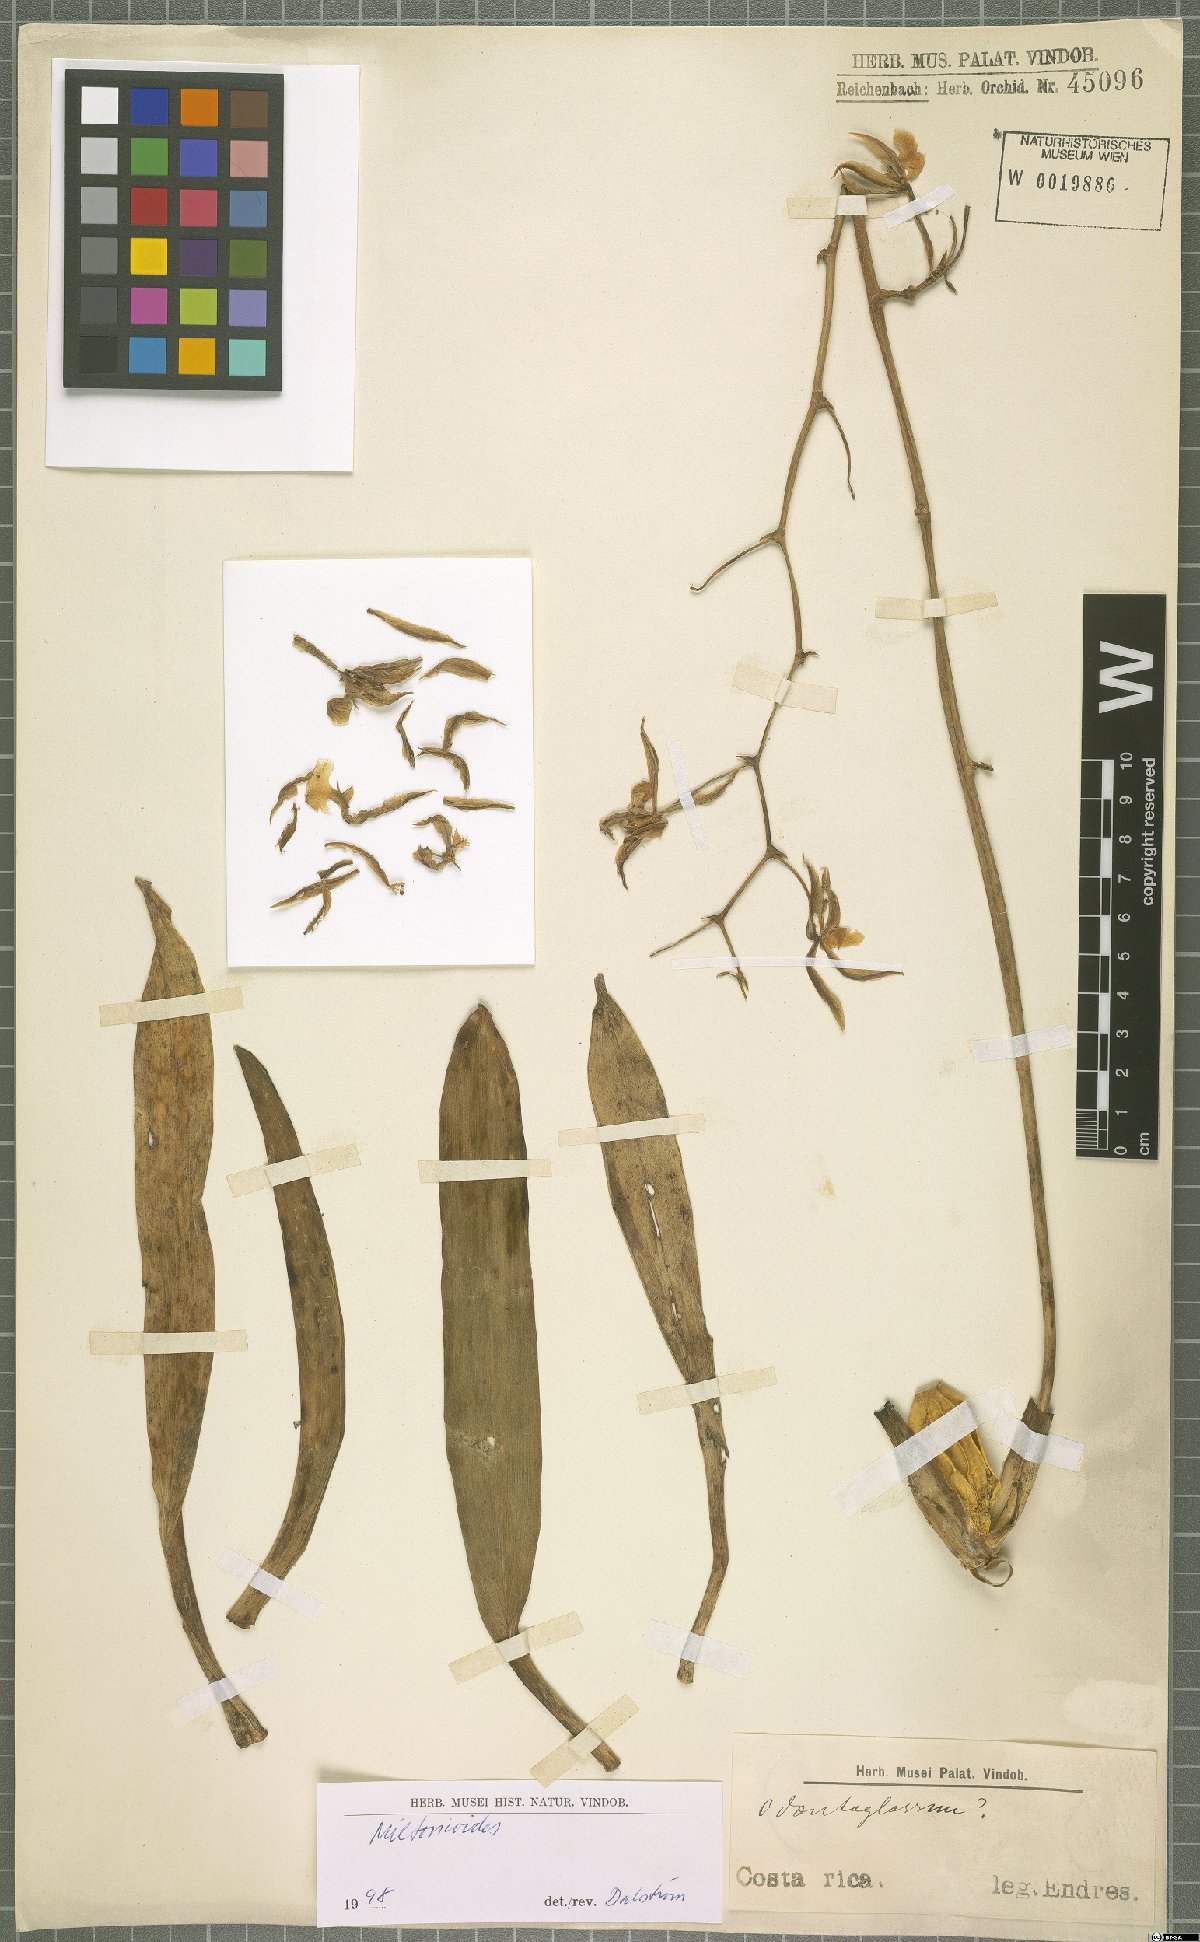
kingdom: Plantae
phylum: Tracheophyta
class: Liliopsida
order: Asparagales
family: Orchidaceae
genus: Oncidium
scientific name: Oncidium
